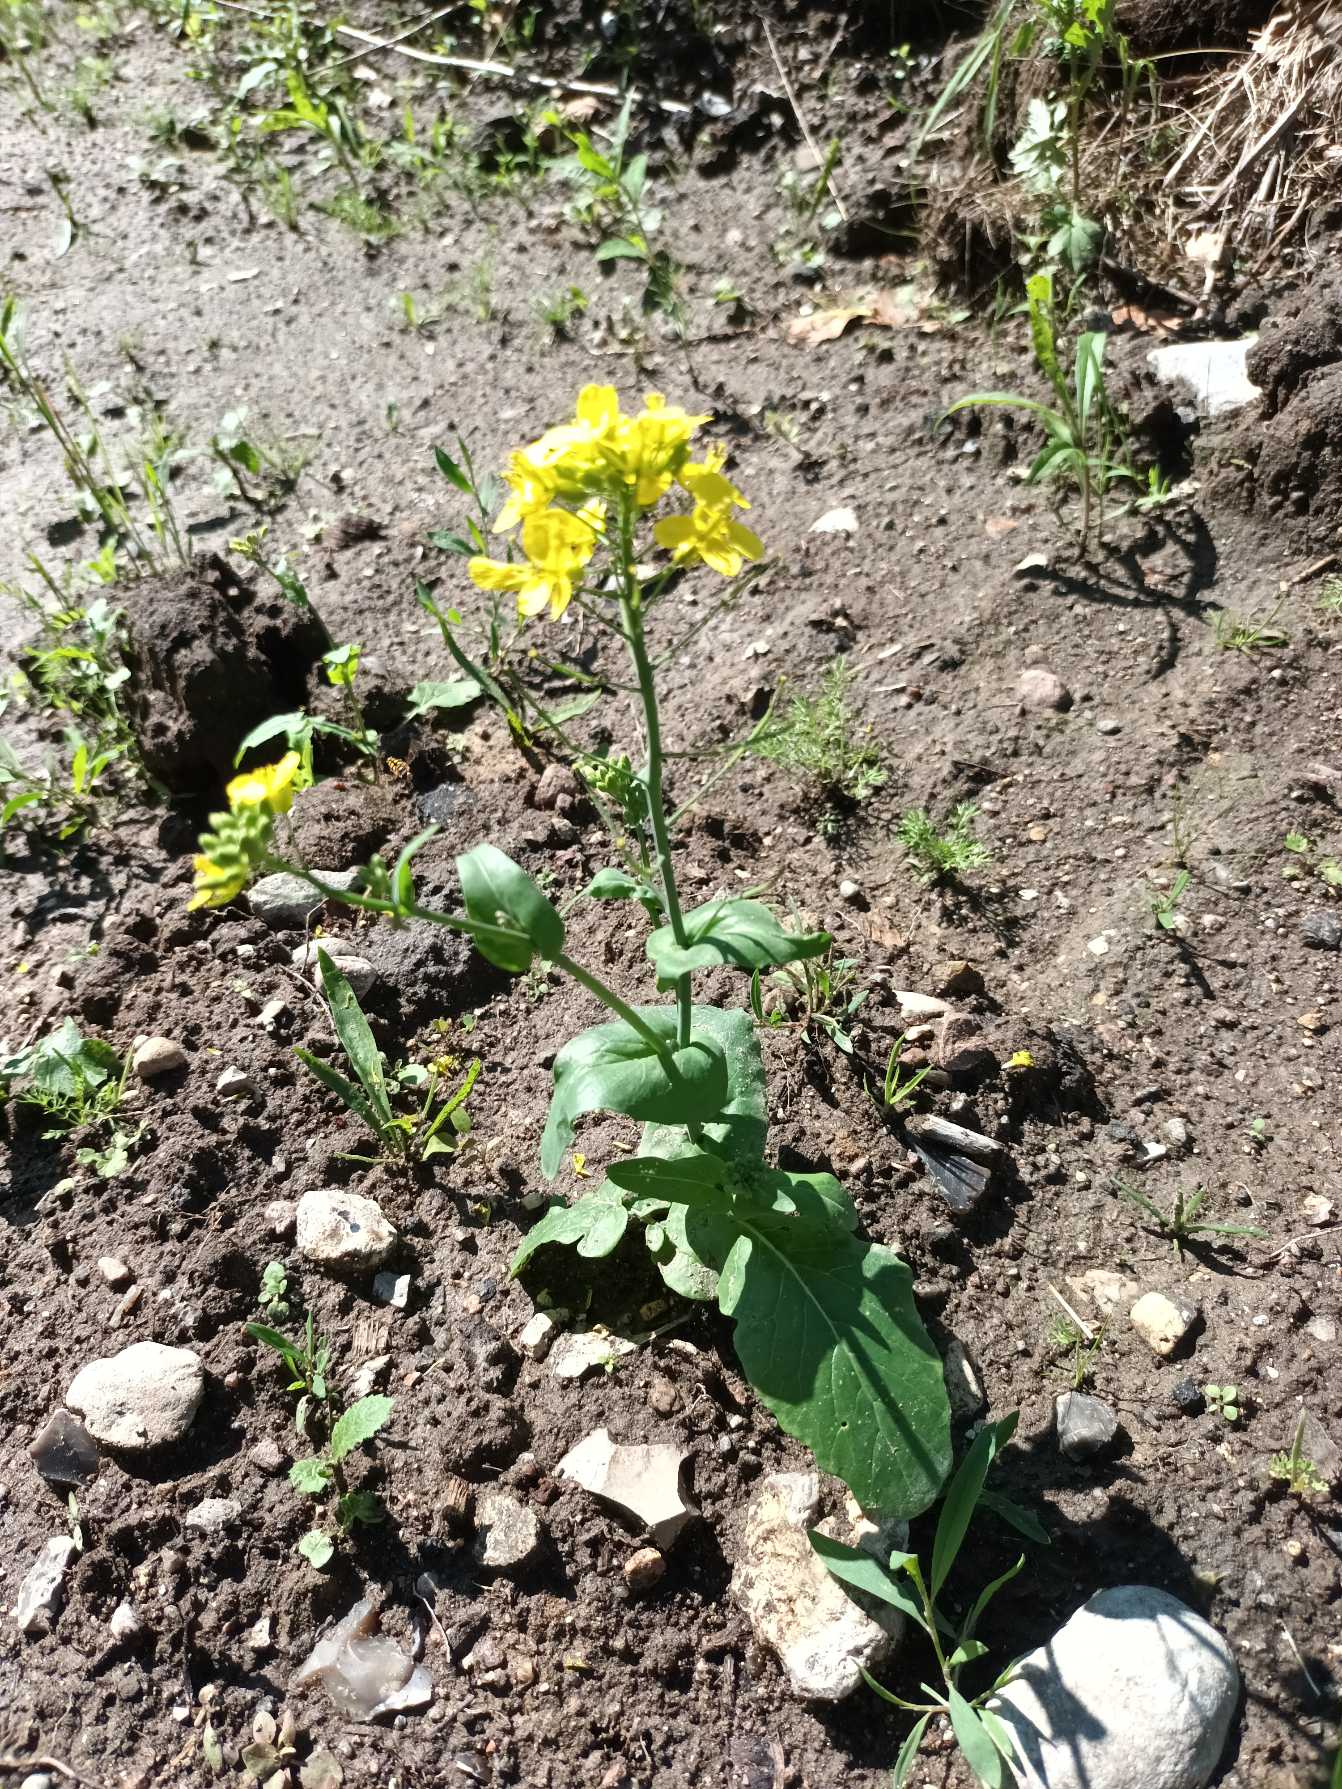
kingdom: Plantae
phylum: Tracheophyta
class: Magnoliopsida
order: Brassicales
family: Brassicaceae
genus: Brassica
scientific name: Brassica rapa
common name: Ager-kål
